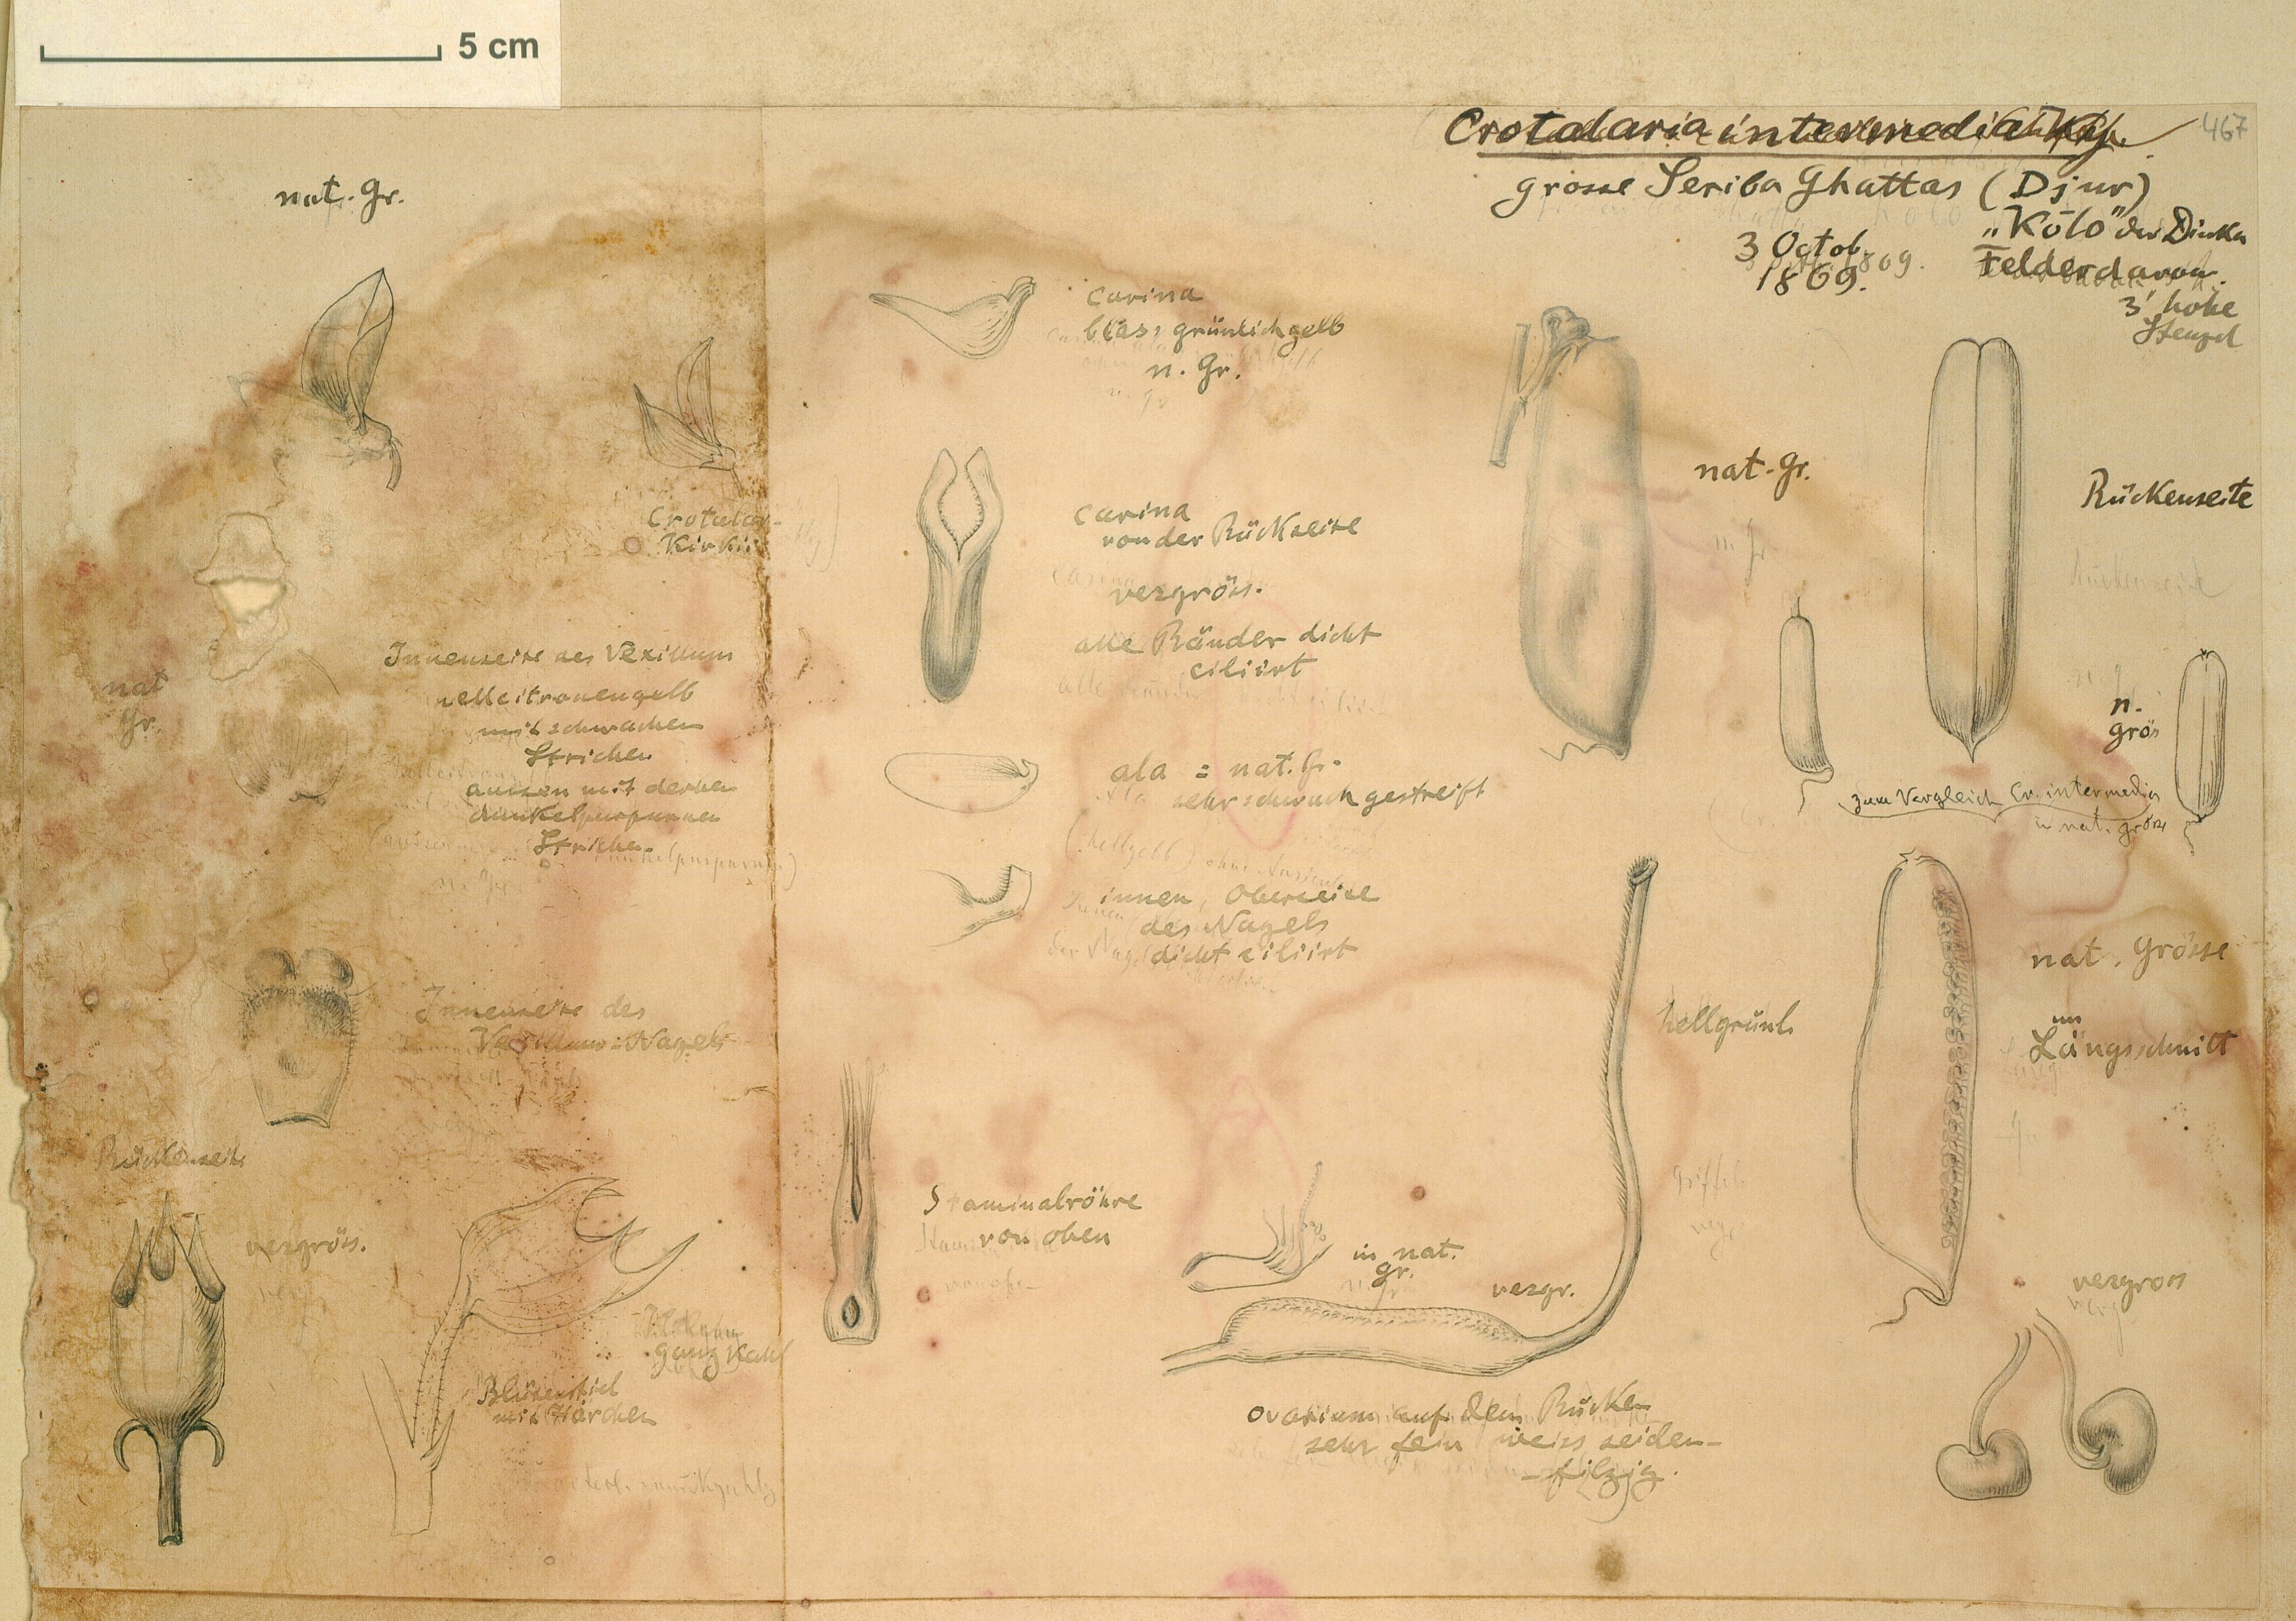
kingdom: Plantae
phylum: Tracheophyta
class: Magnoliopsida
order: Fabales
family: Fabaceae
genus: Crotalaria
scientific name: Crotalaria brevidens
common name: Ethiopian rattlebox
